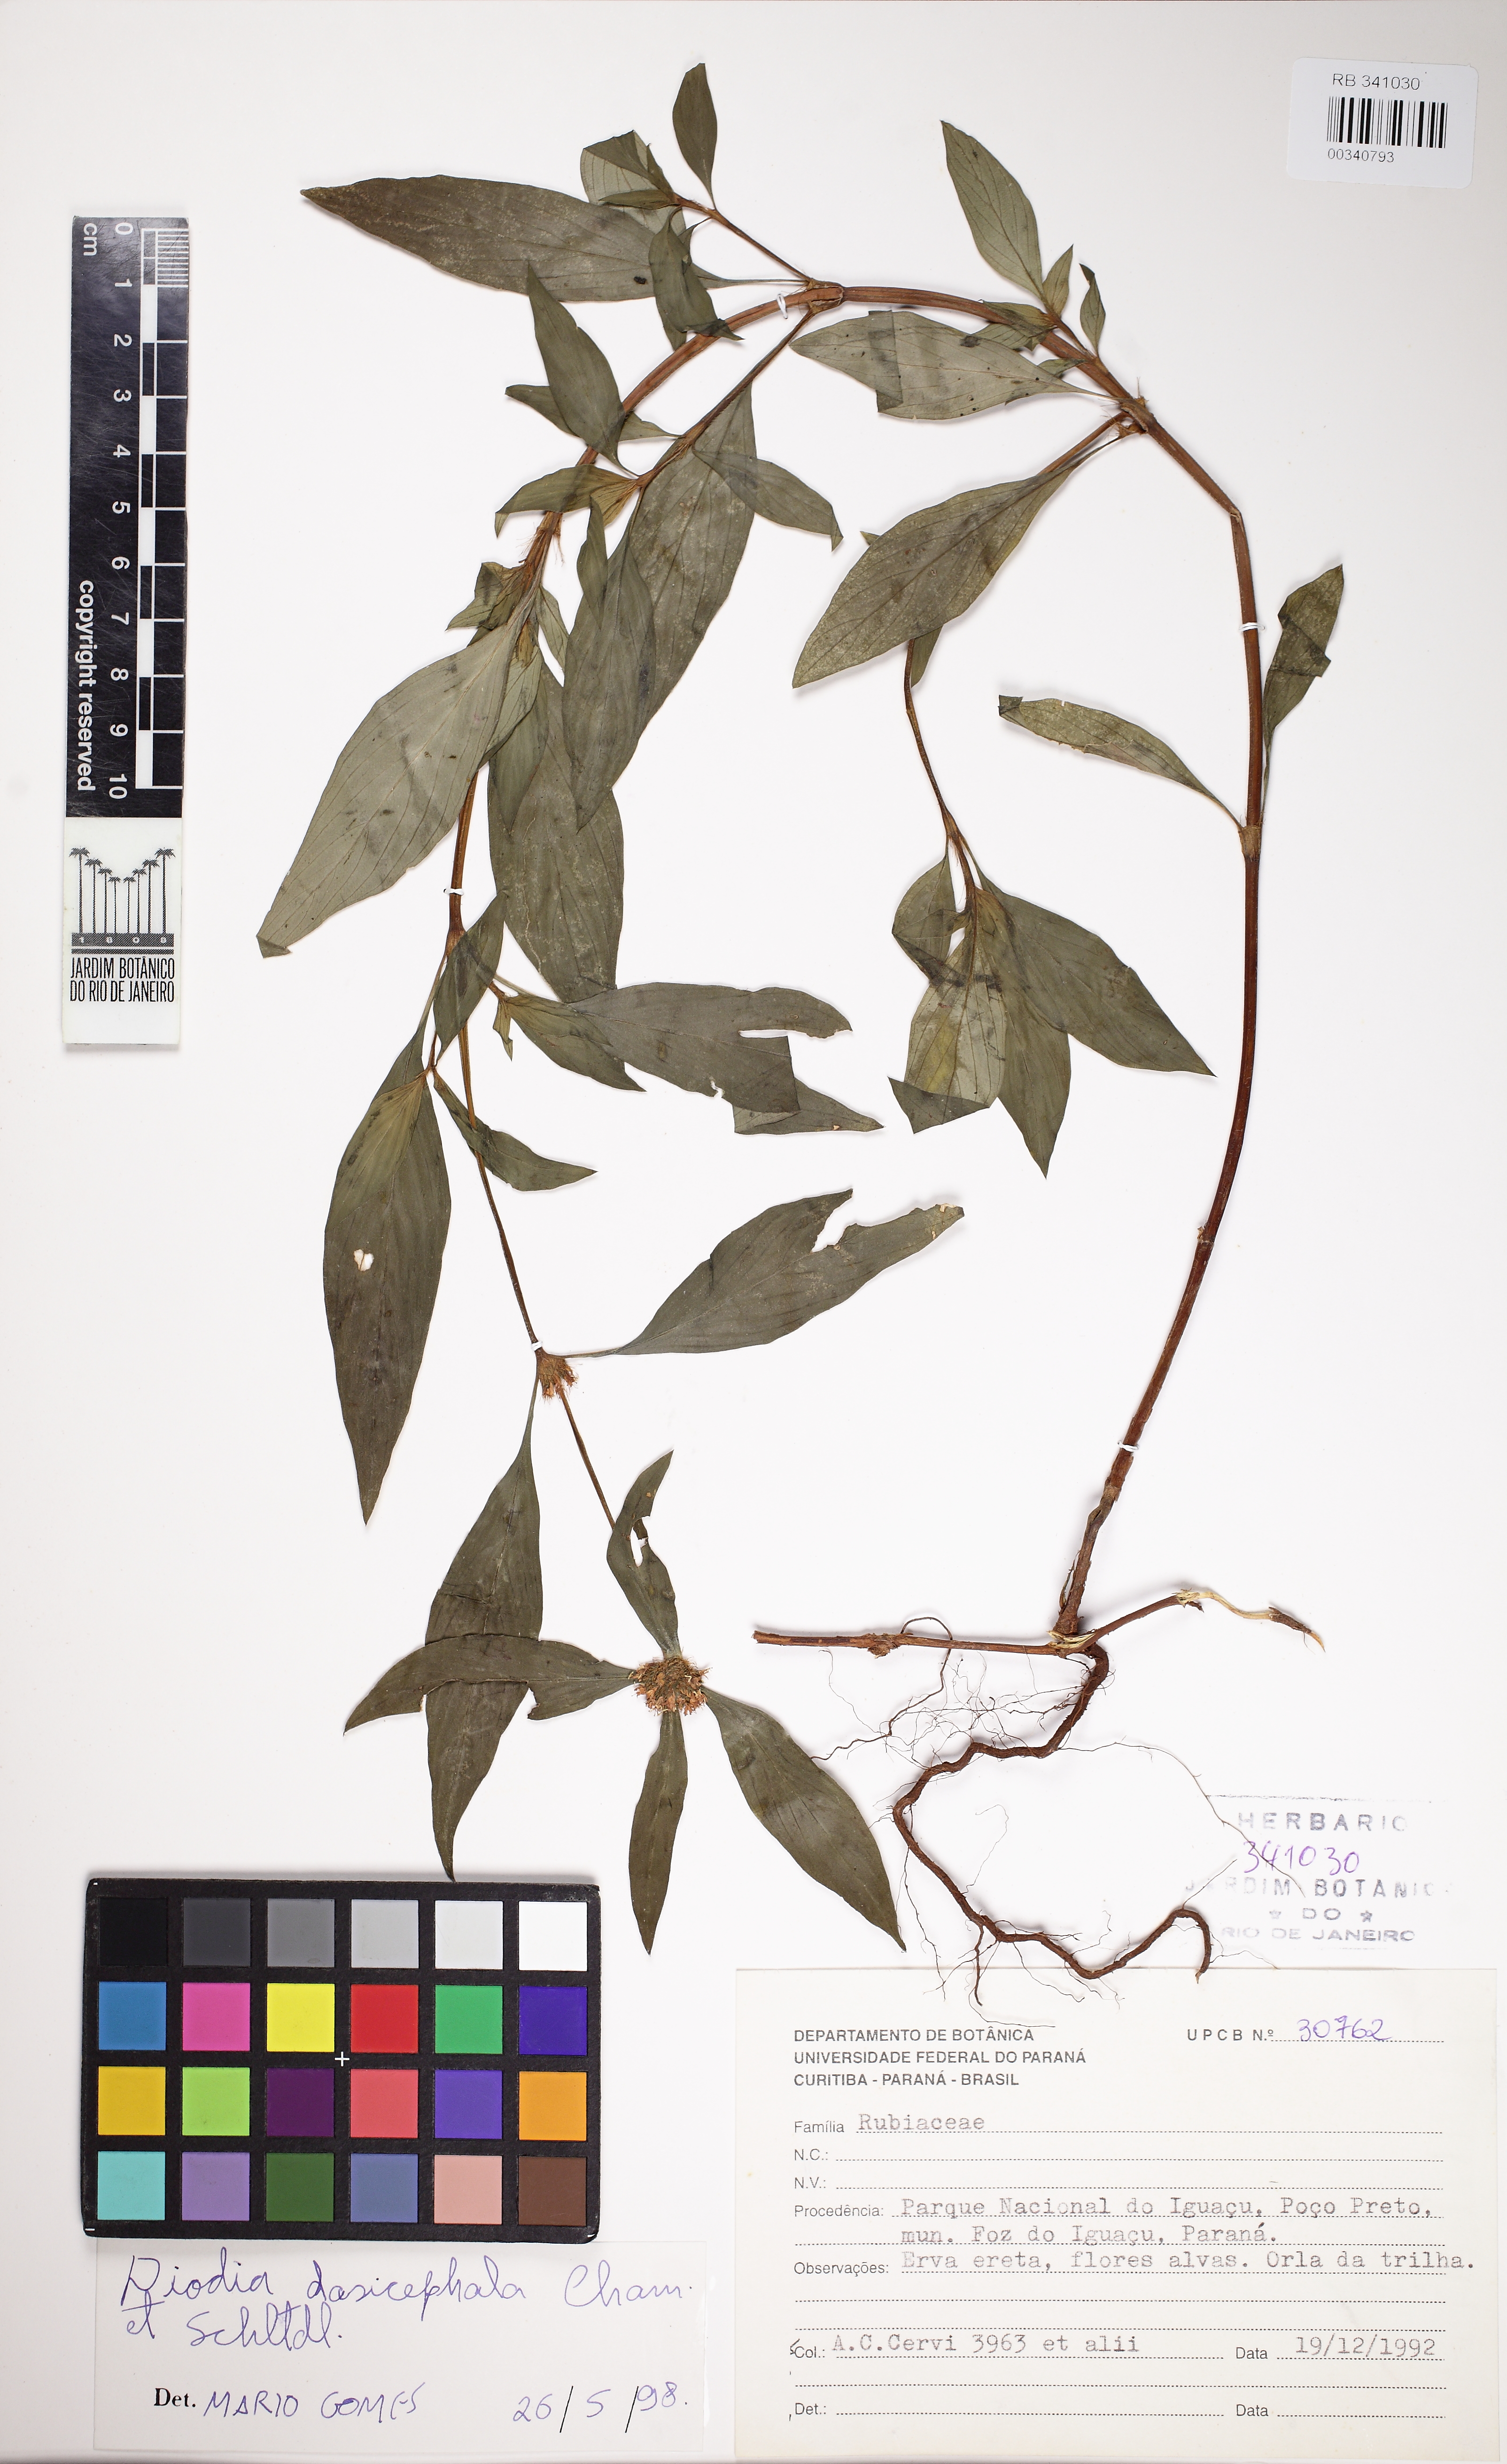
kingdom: Plantae
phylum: Tracheophyta
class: Magnoliopsida
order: Gentianales
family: Rubiaceae
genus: Spermacoce
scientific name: Spermacoce Borreria orientalis
